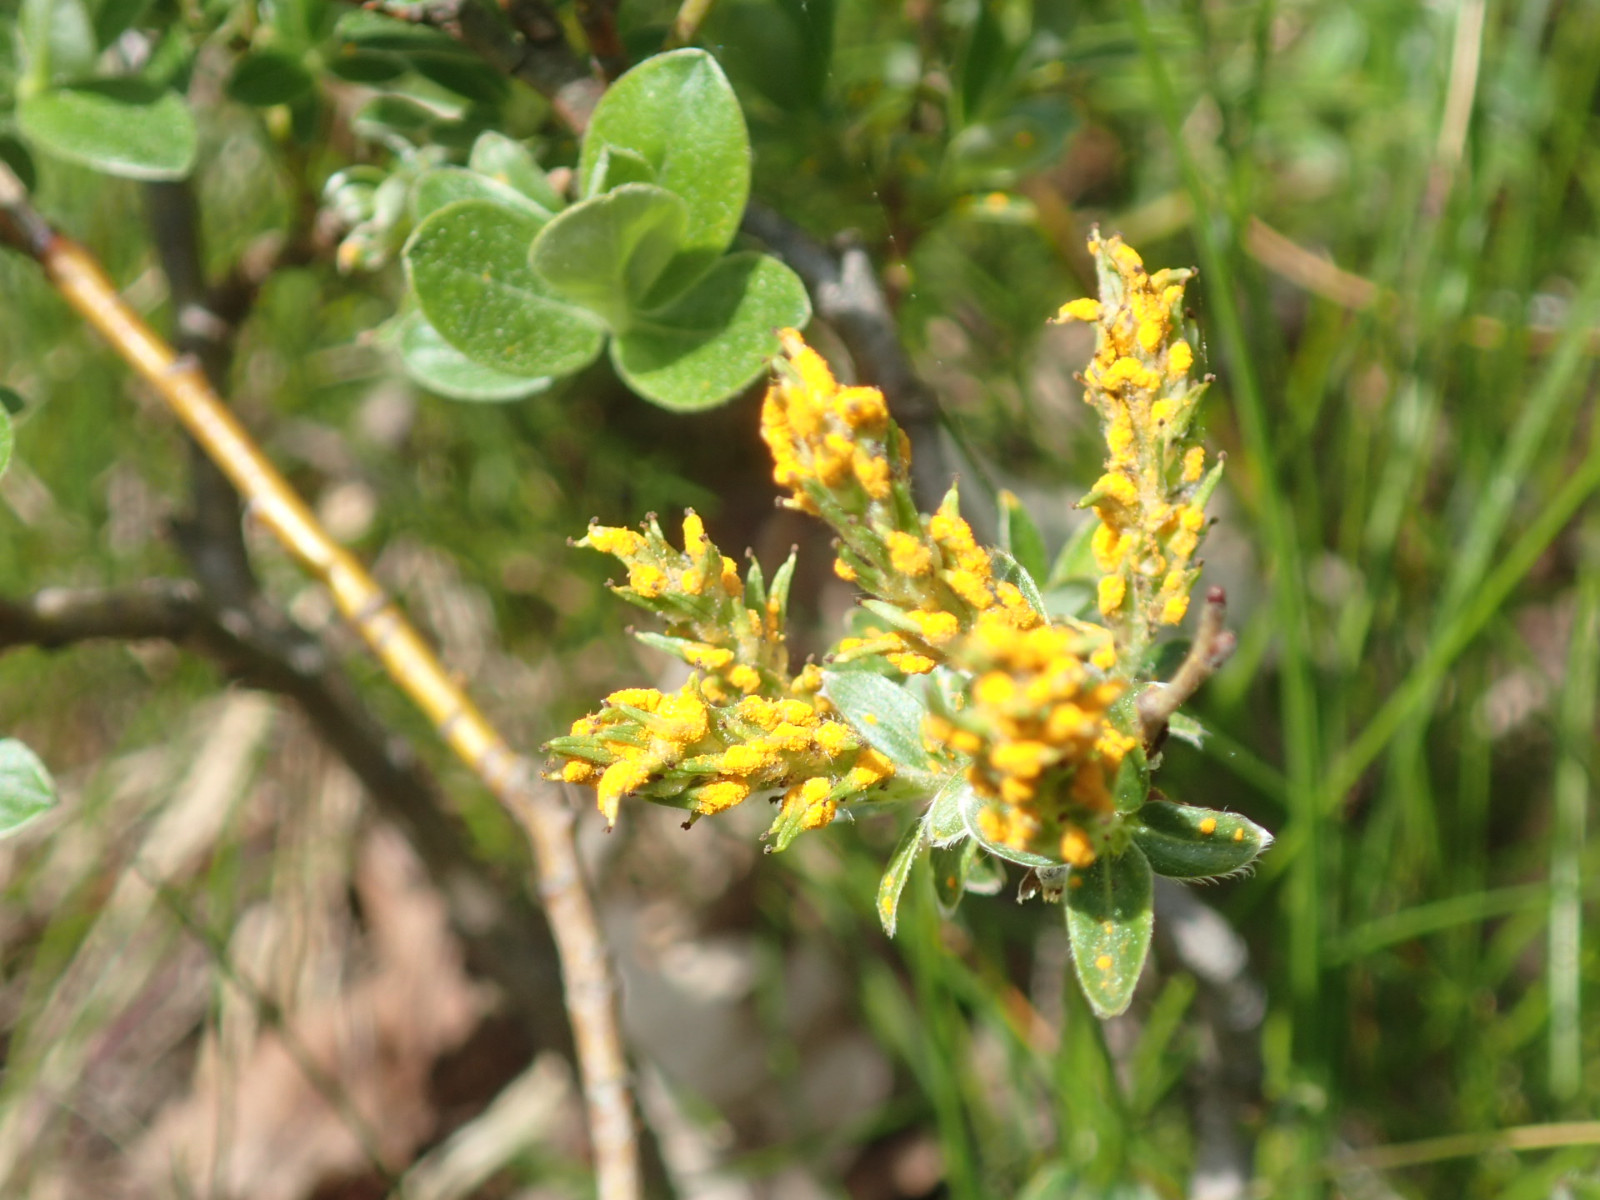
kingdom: Fungi
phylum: Basidiomycota
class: Pucciniomycetes
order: Pucciniales
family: Melampsoraceae
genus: Melampsora
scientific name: Melampsora epitea
